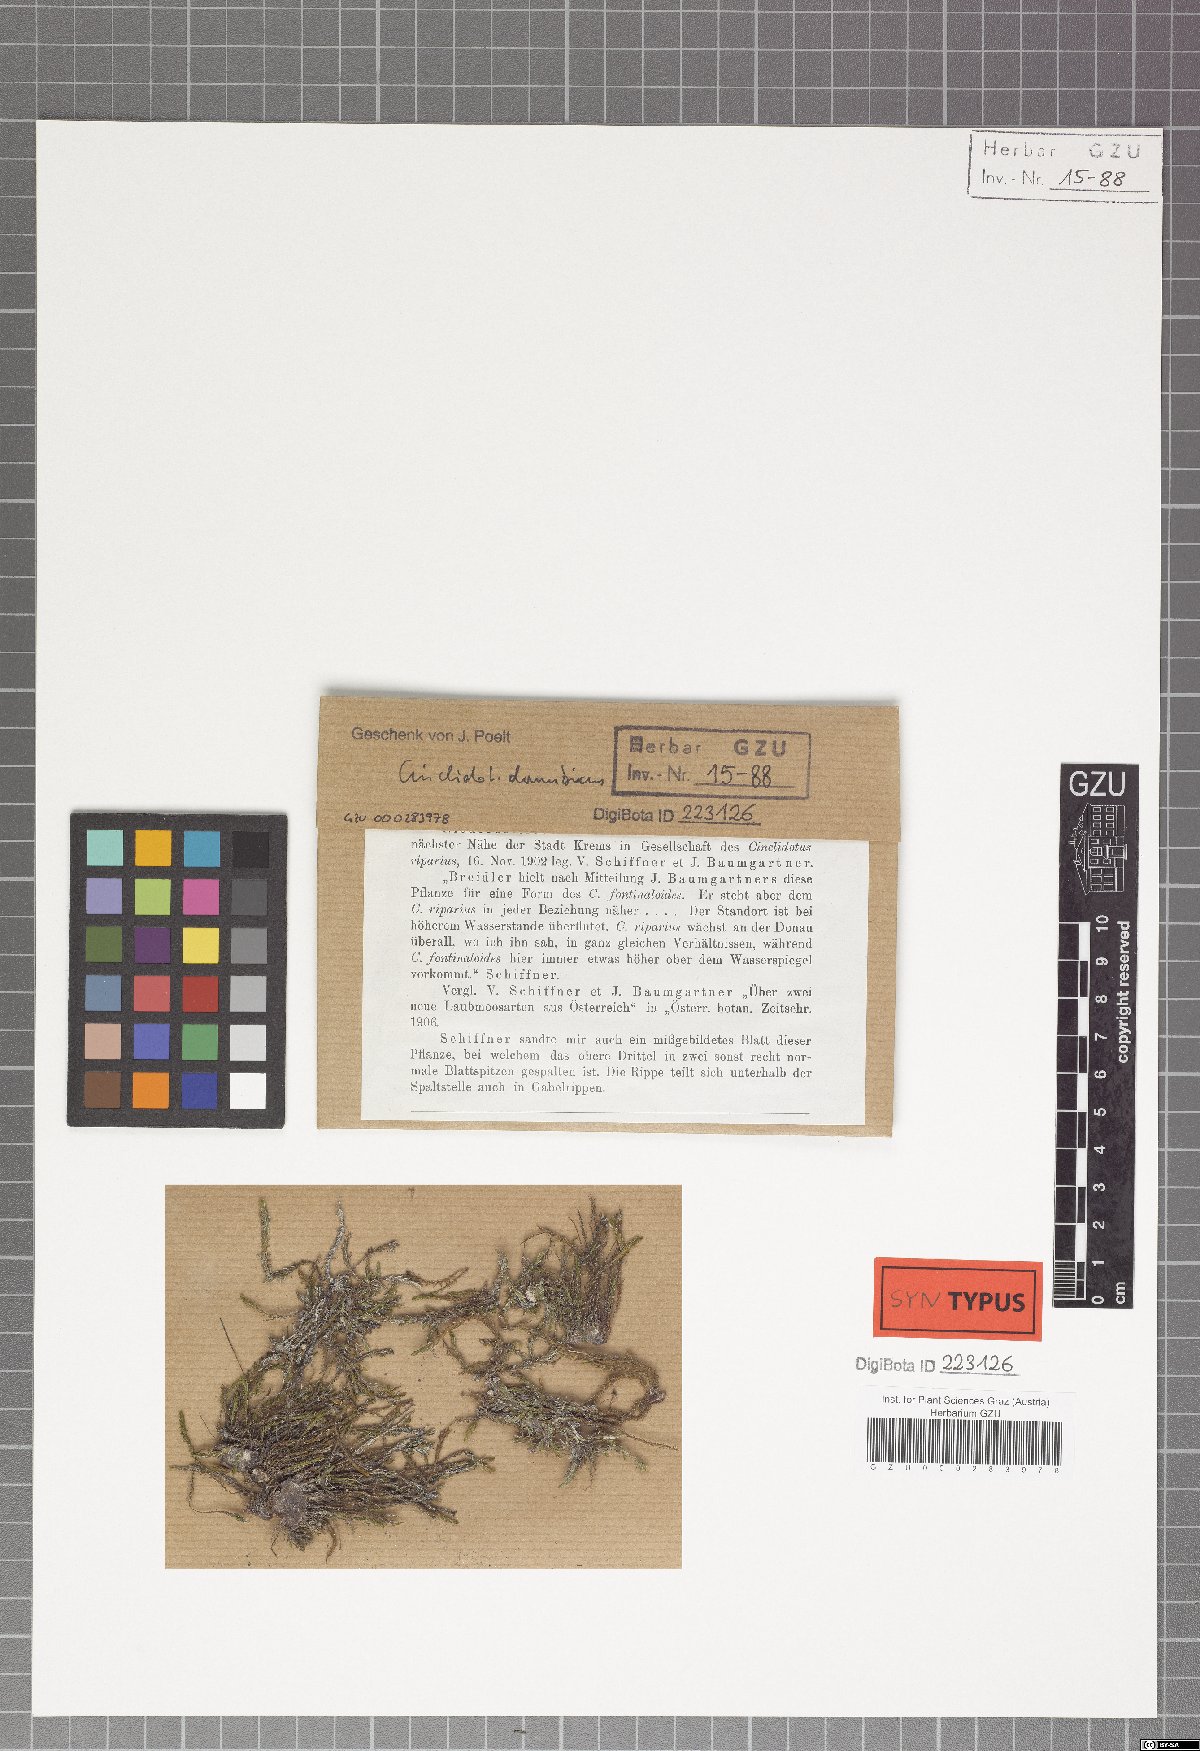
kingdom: Plantae
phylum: Bryophyta
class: Bryopsida
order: Pottiales
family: Pottiaceae
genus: Cinclidotus
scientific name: Cinclidotus danubicus
